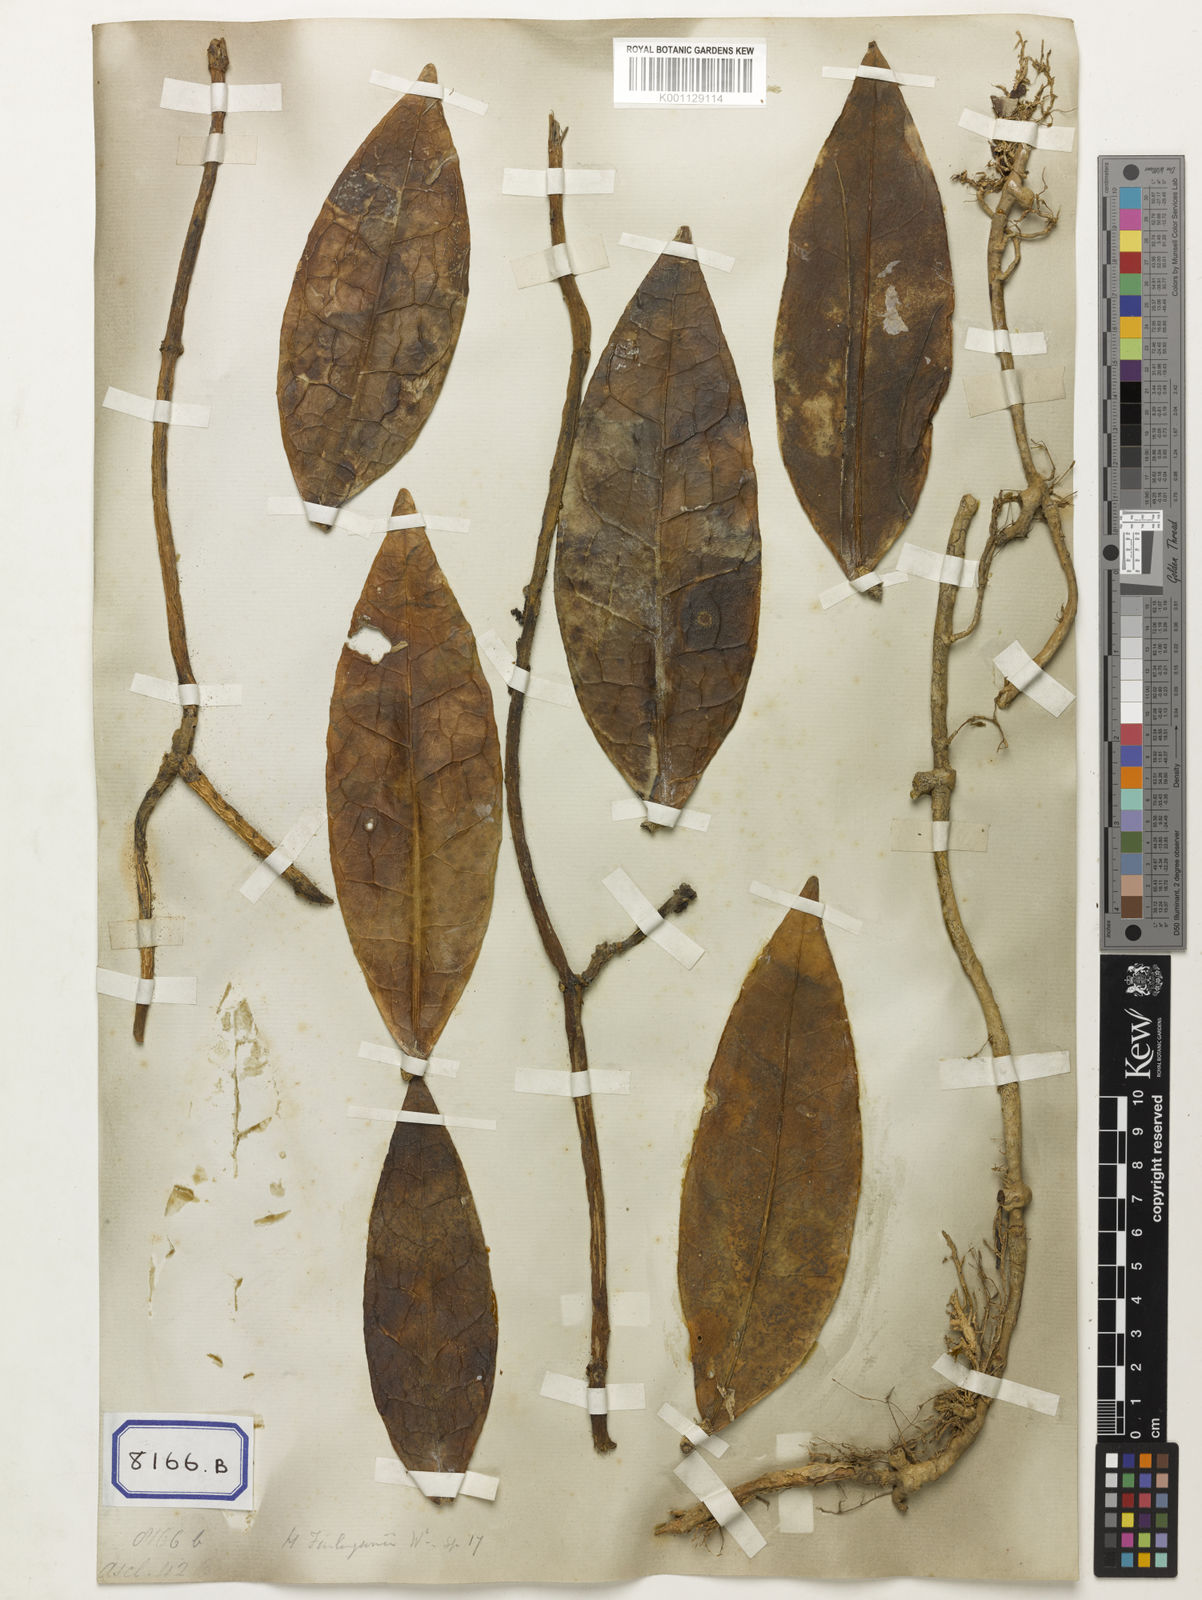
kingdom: Plantae
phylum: Tracheophyta
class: Magnoliopsida
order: Gentianales
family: Apocynaceae
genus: Hoya
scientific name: Hoya finlaysonii
